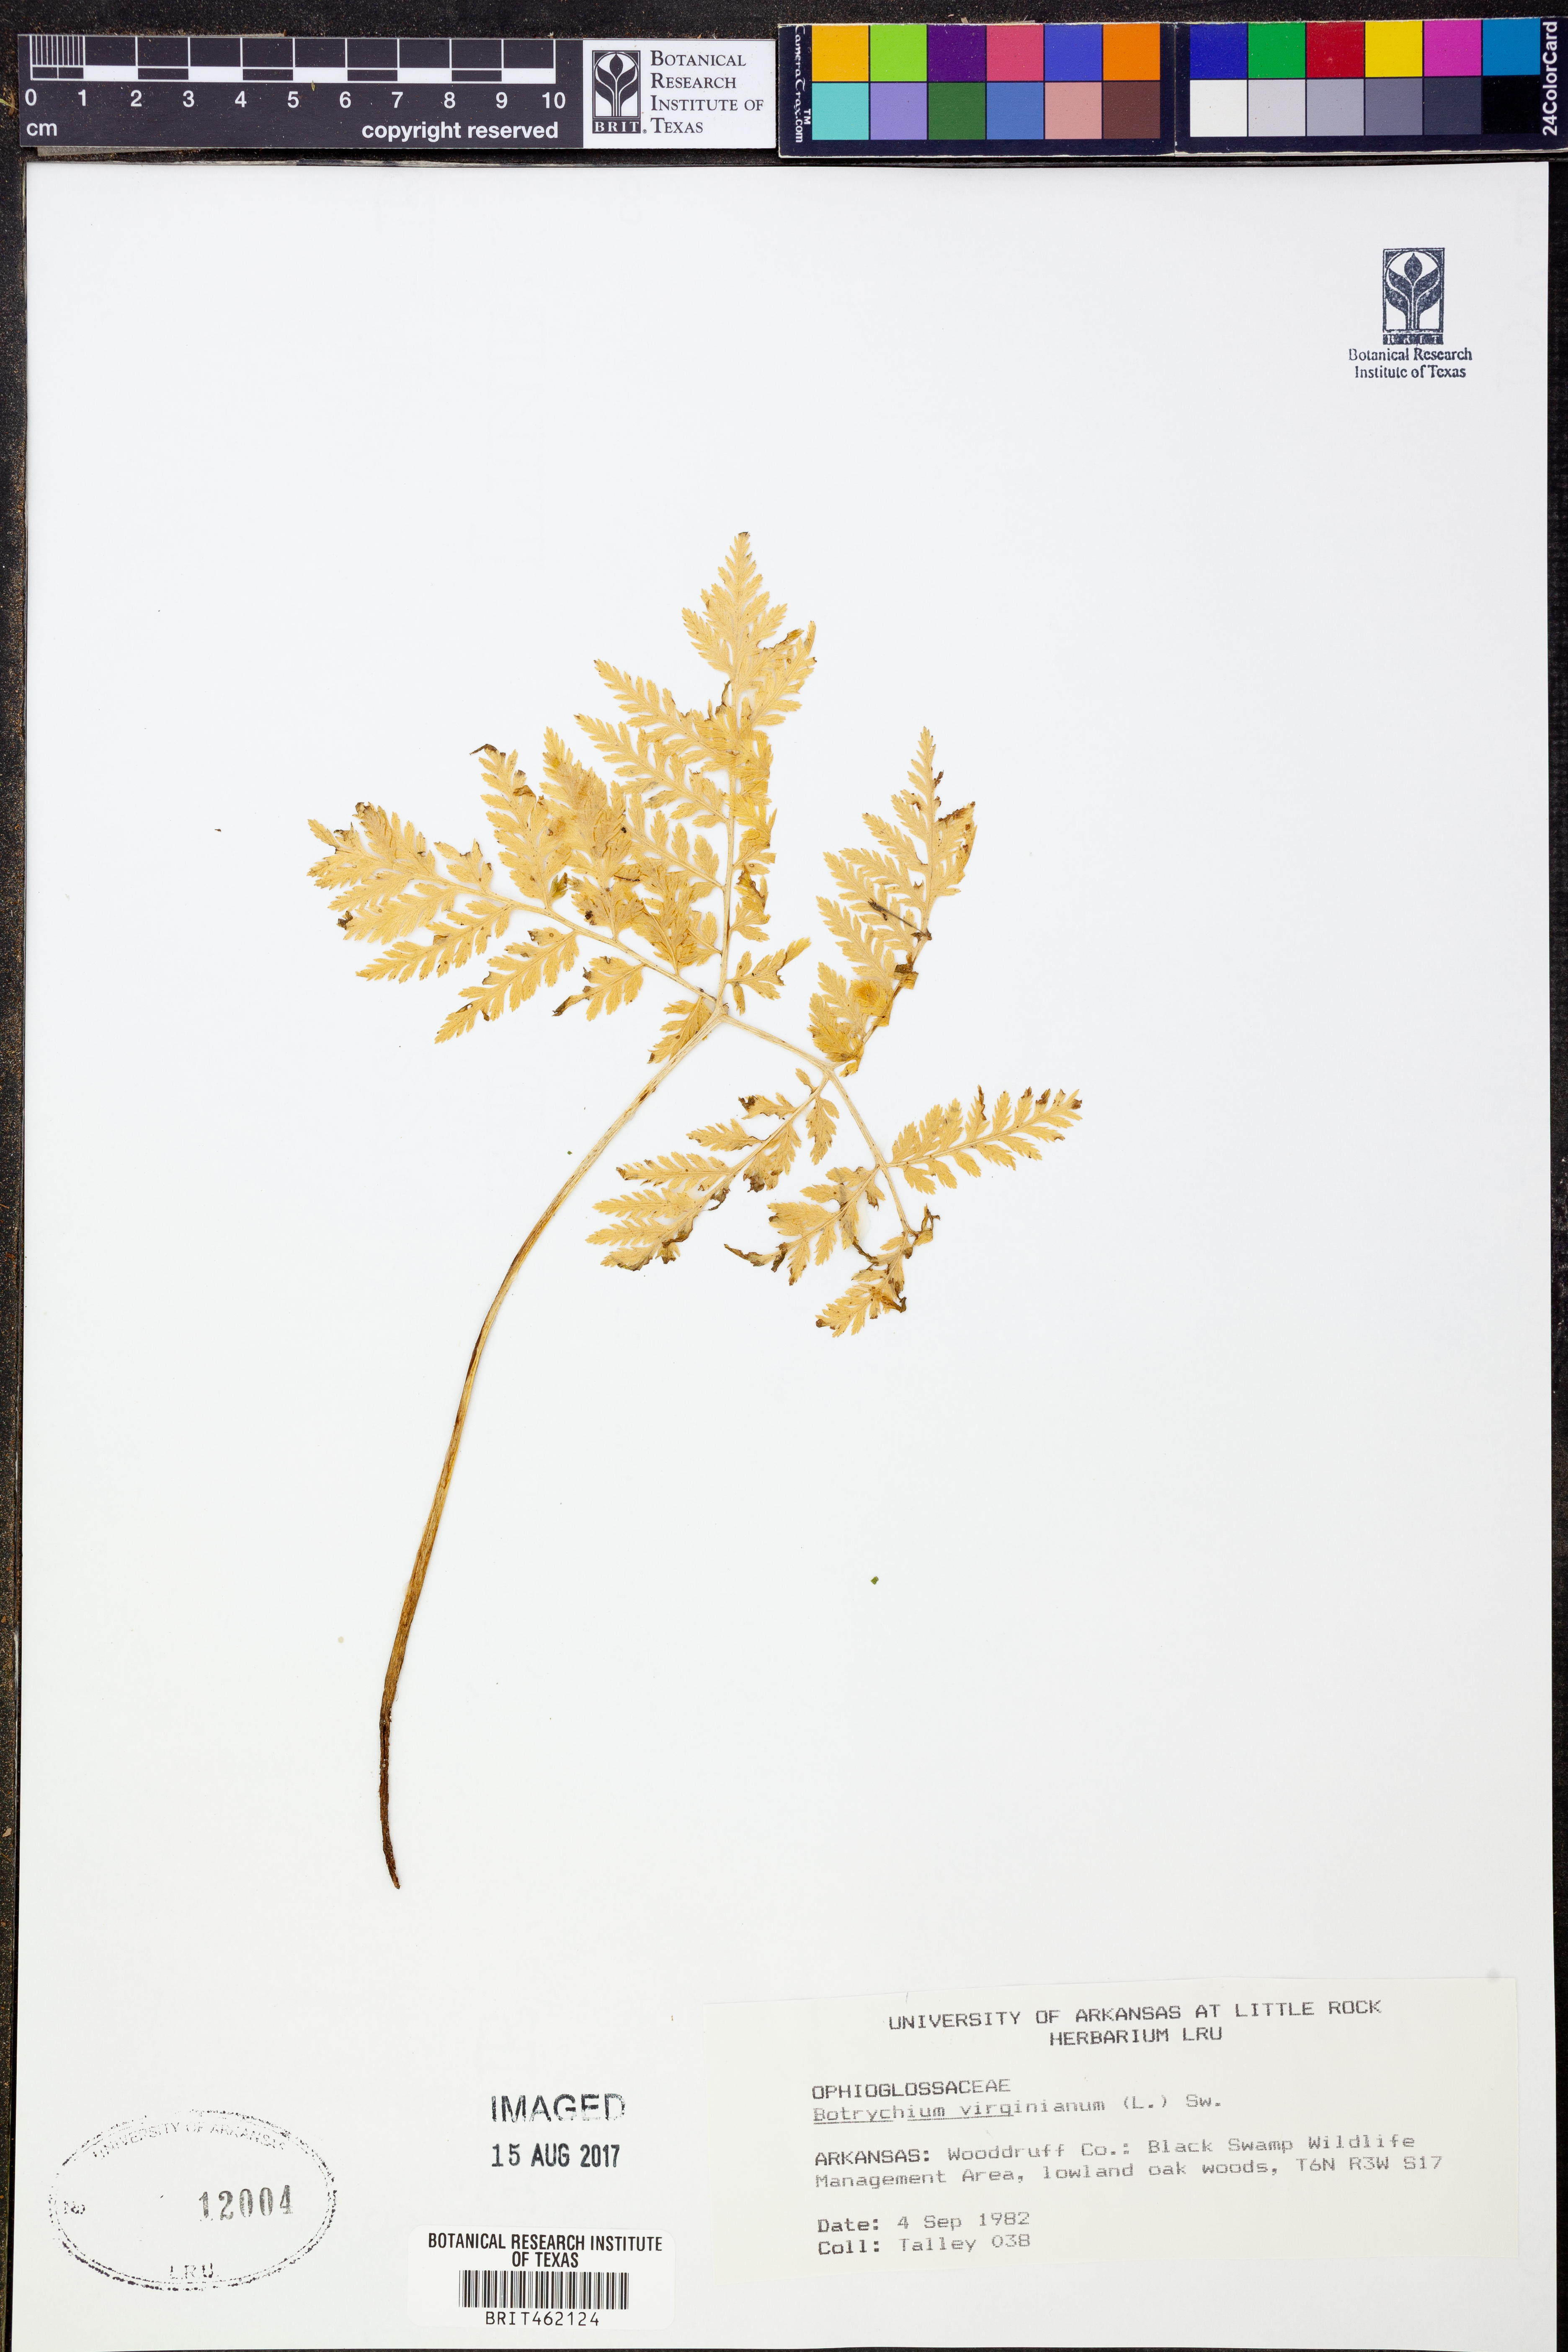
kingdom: Plantae
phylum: Tracheophyta
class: Polypodiopsida
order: Ophioglossales
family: Ophioglossaceae
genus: Botrypus
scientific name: Botrypus virginianus
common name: Common grapefern
